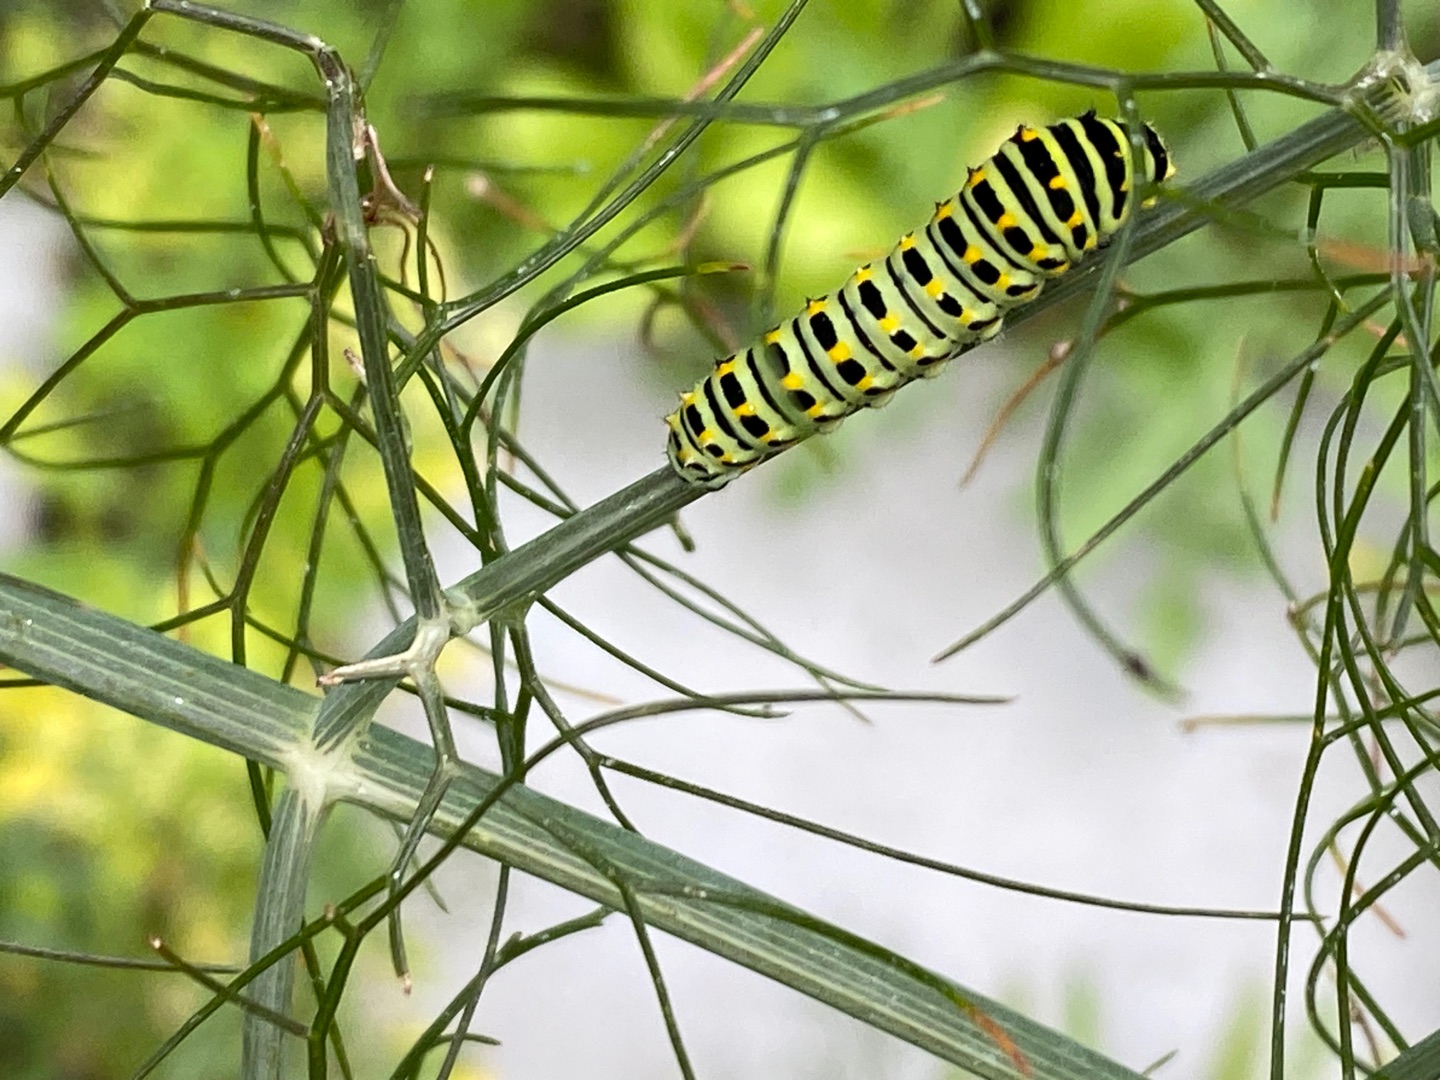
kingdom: Animalia
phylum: Arthropoda
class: Insecta
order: Lepidoptera
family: Papilionidae
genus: Papilio
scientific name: Papilio machaon
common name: Svalehale
